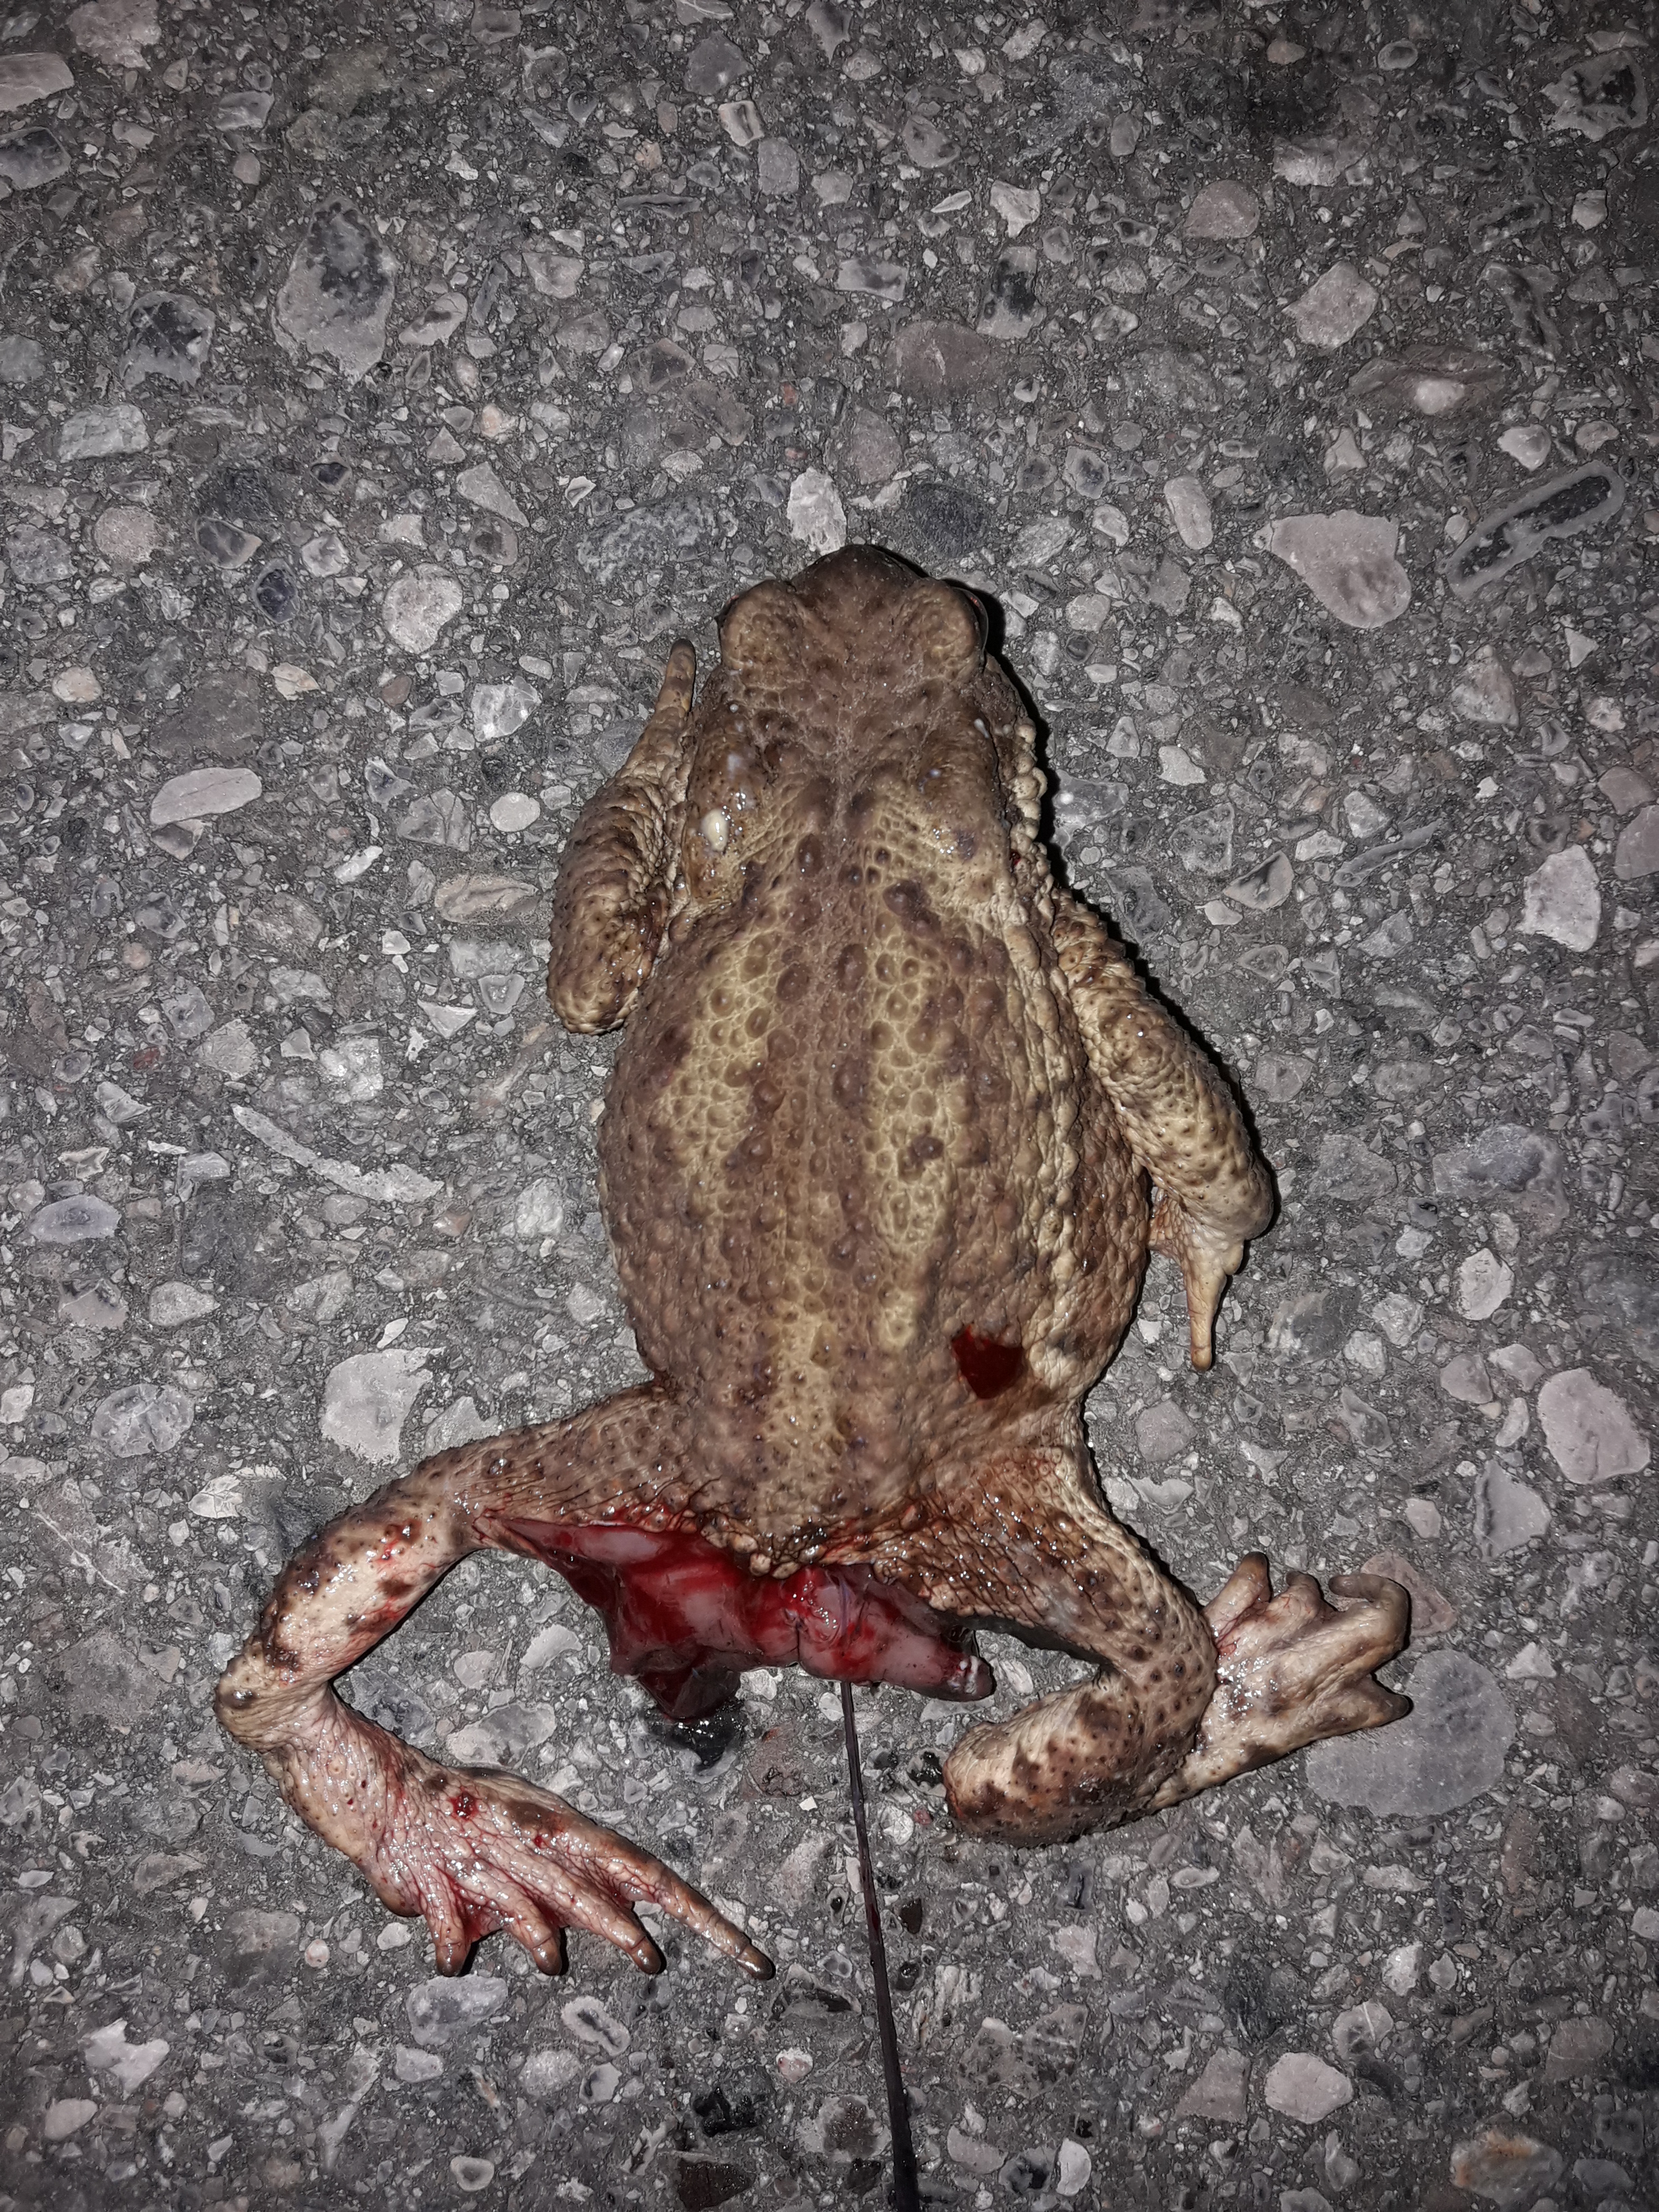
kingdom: Animalia
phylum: Chordata
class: Amphibia
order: Anura
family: Bufonidae
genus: Bufo
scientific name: Bufo bufo
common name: Common toad
